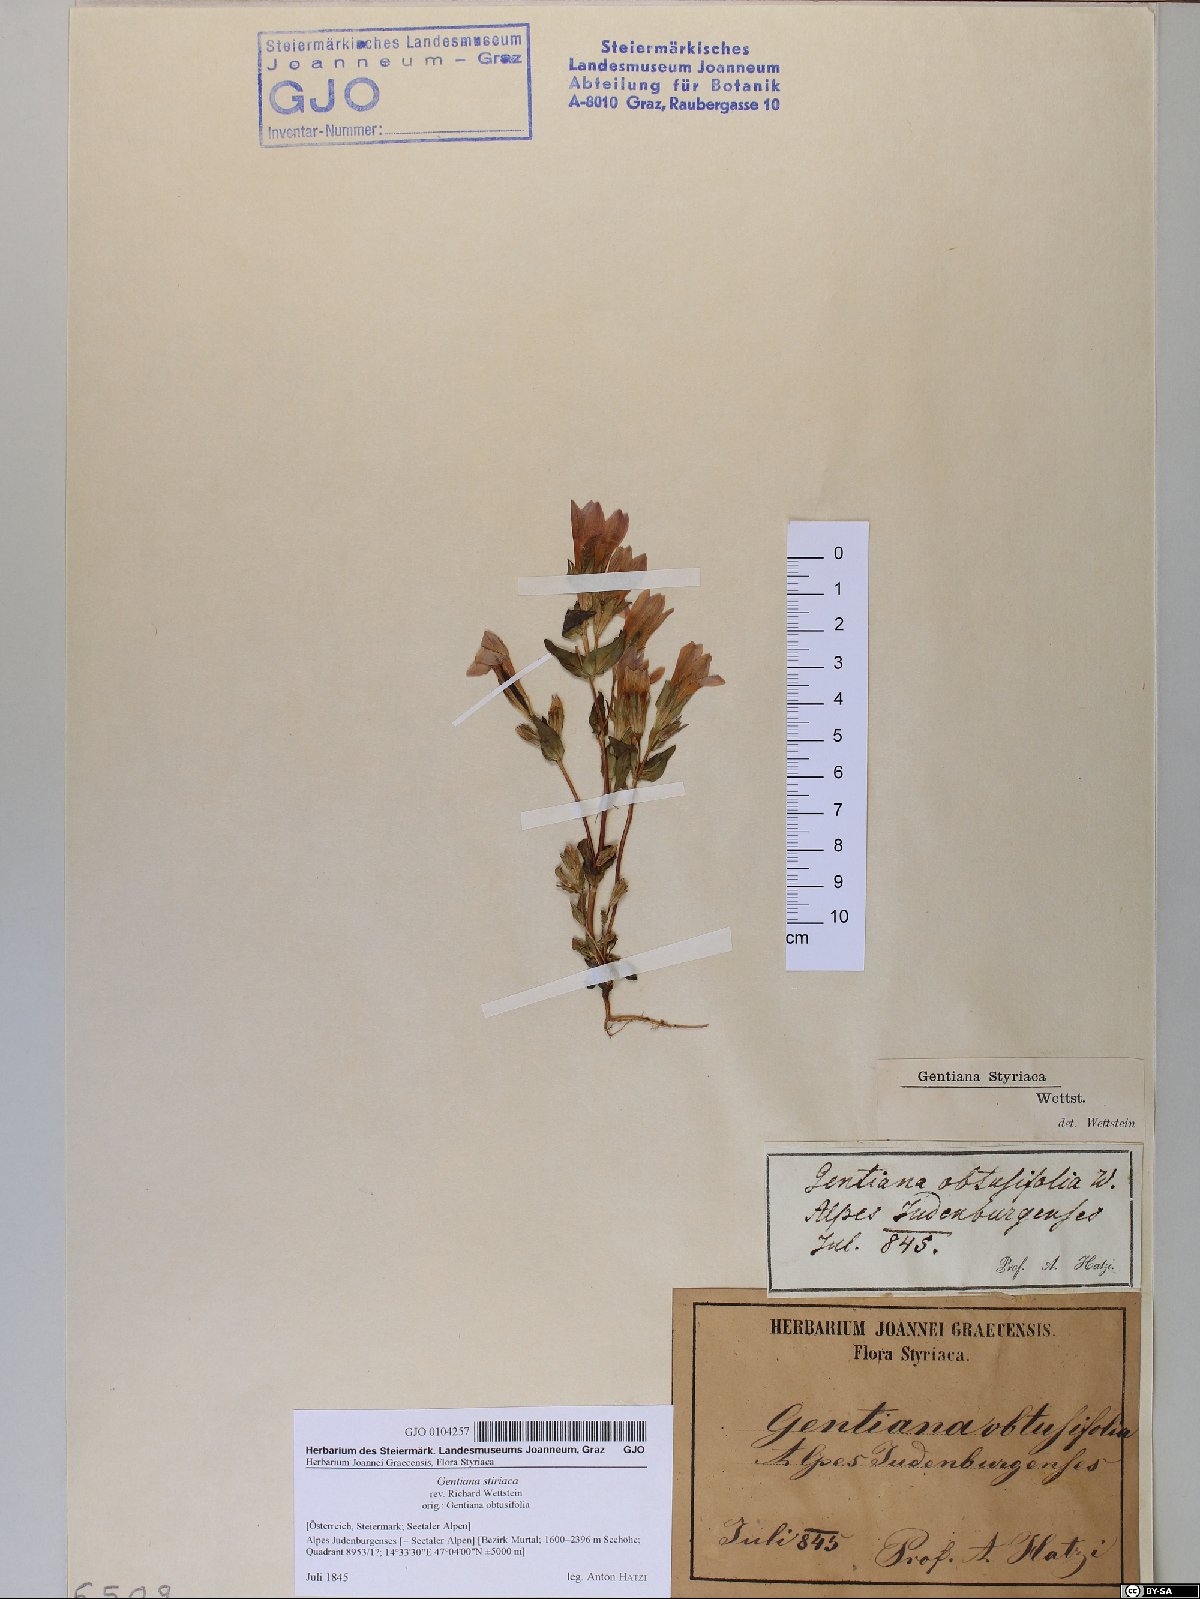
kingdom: Plantae
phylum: Tracheophyta
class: Magnoliopsida
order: Gentianales
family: Gentianaceae
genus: Gentianella
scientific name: Gentianella rhaetica
